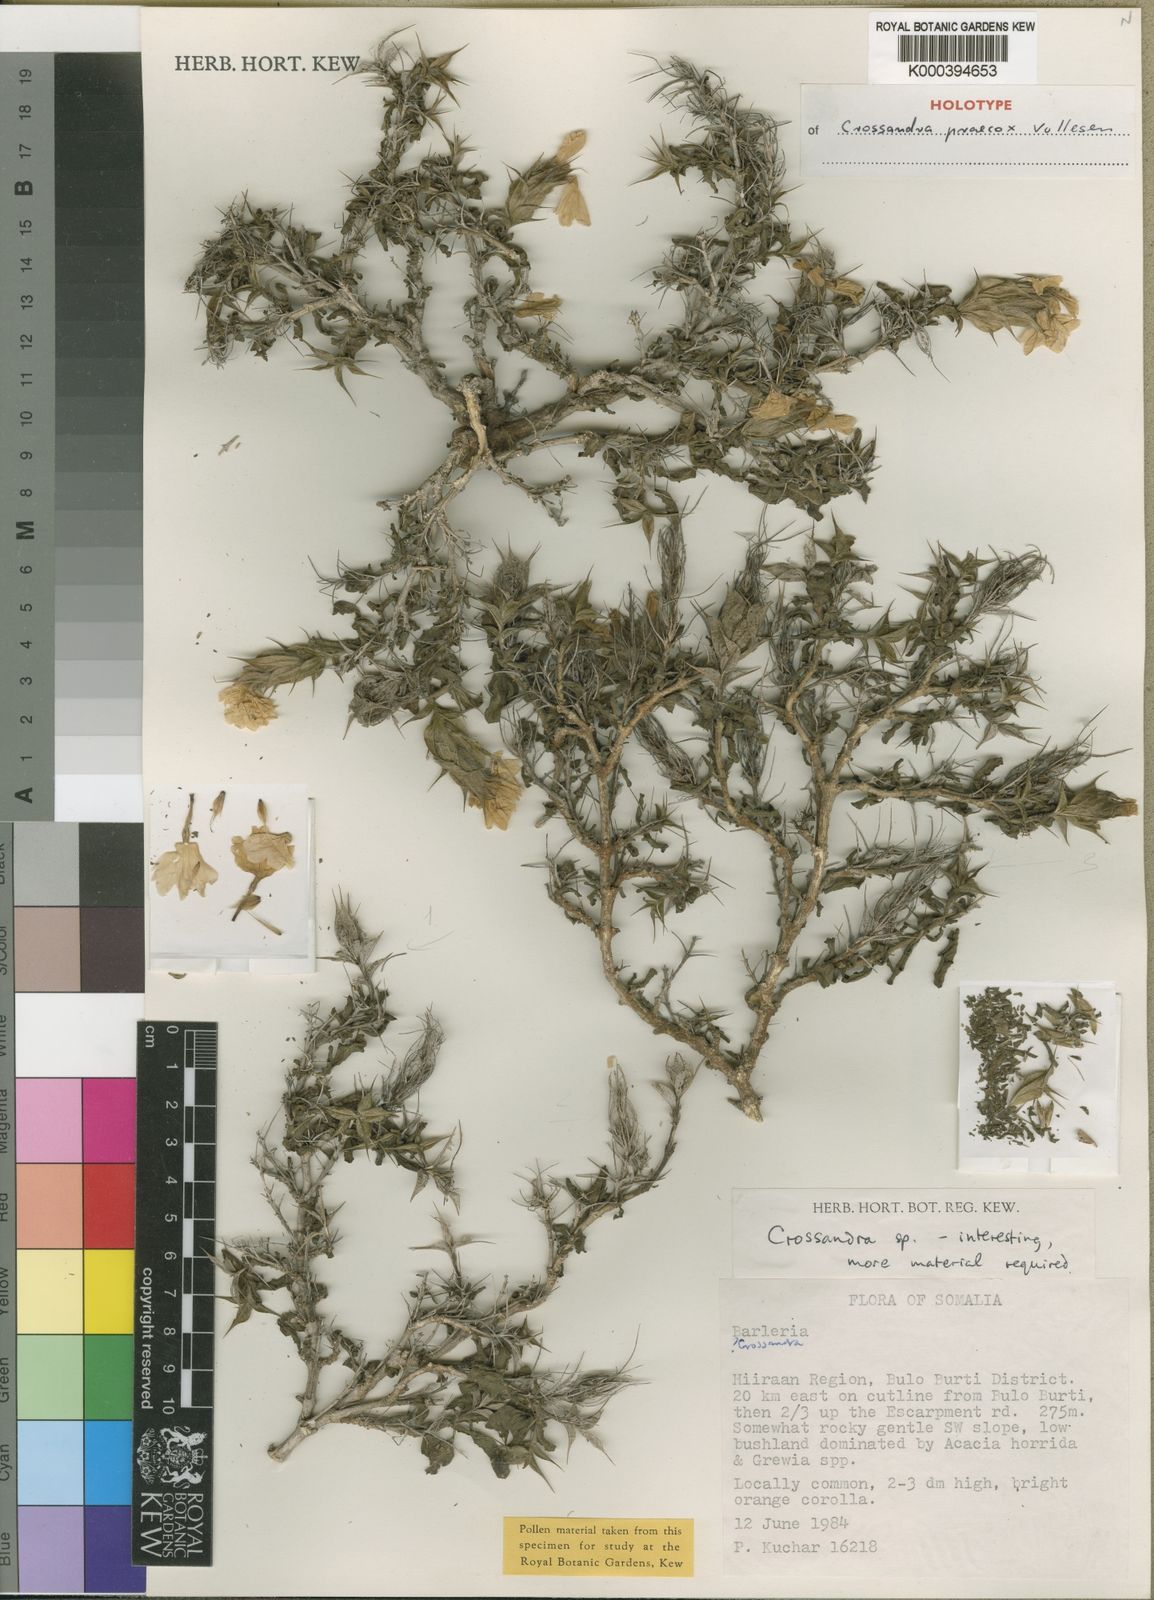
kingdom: Plantae
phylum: Tracheophyta
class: Magnoliopsida
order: Lamiales
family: Acanthaceae
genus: Crossandra
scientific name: Crossandra praecox
